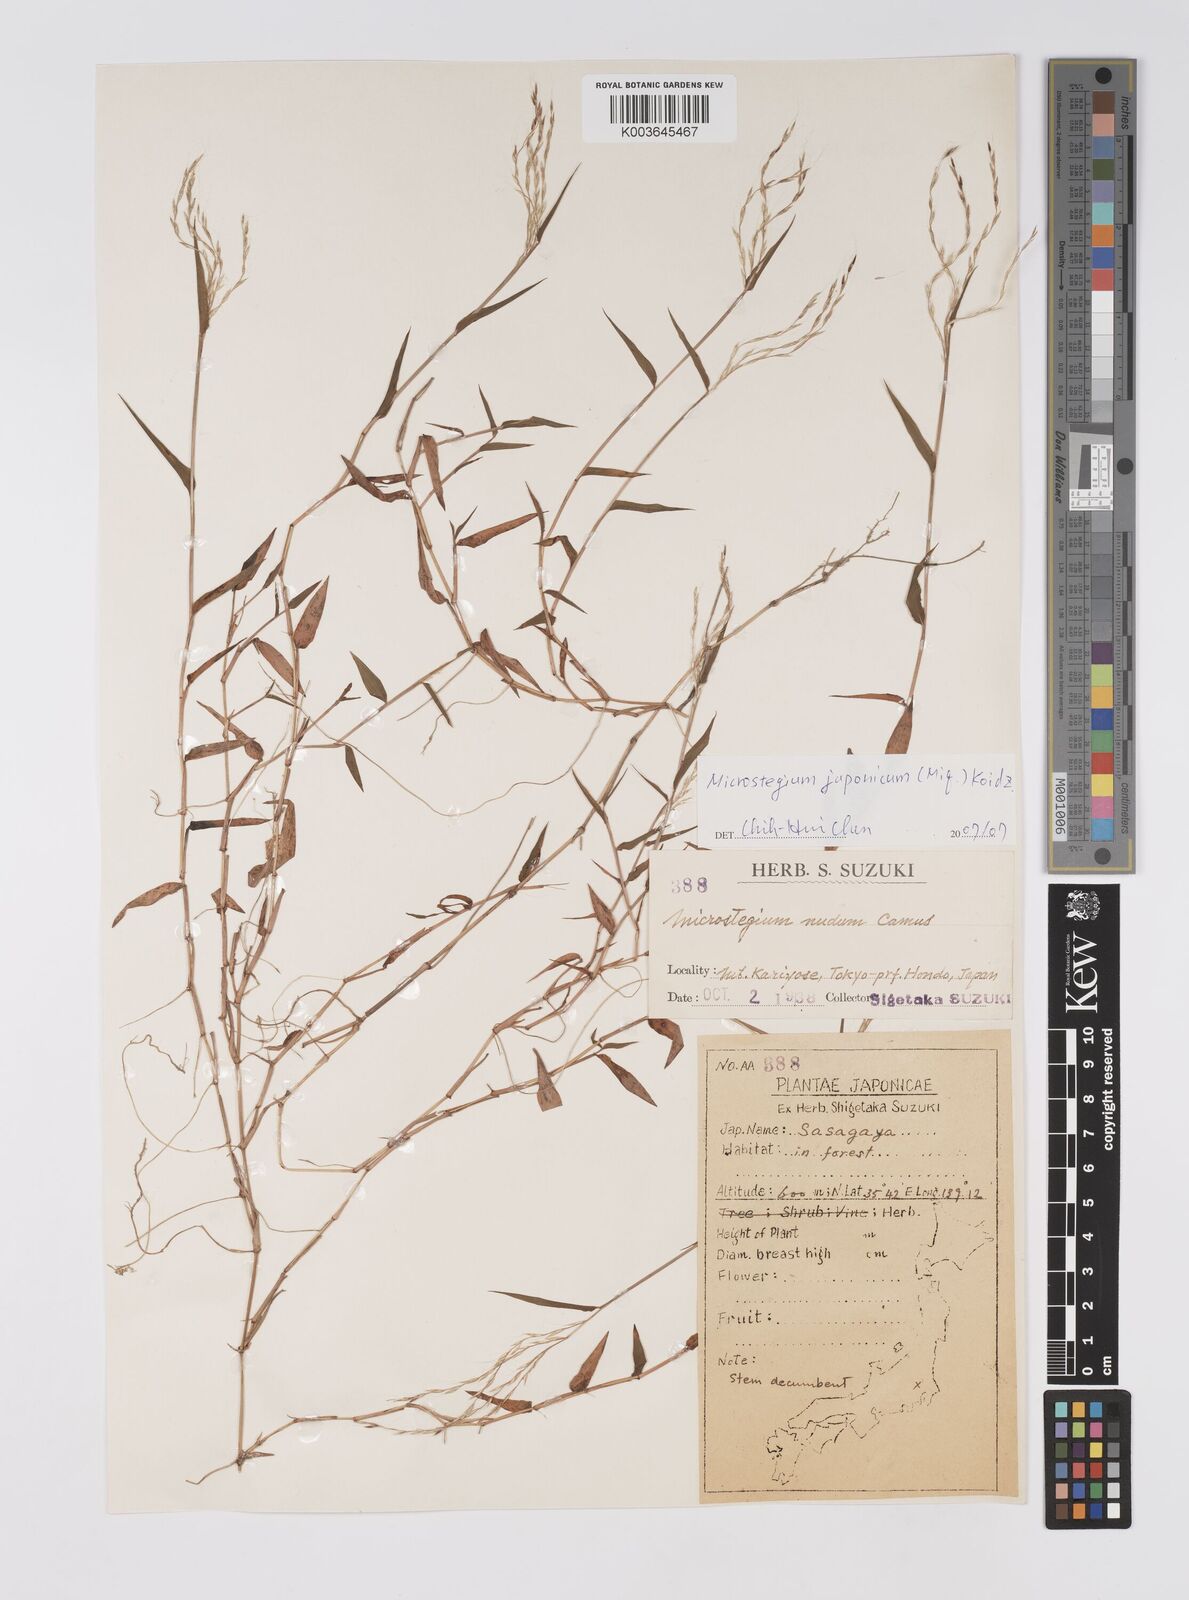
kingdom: Plantae
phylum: Tracheophyta
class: Liliopsida
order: Poales
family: Poaceae
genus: Microstegium
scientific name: Microstegium japonicum
